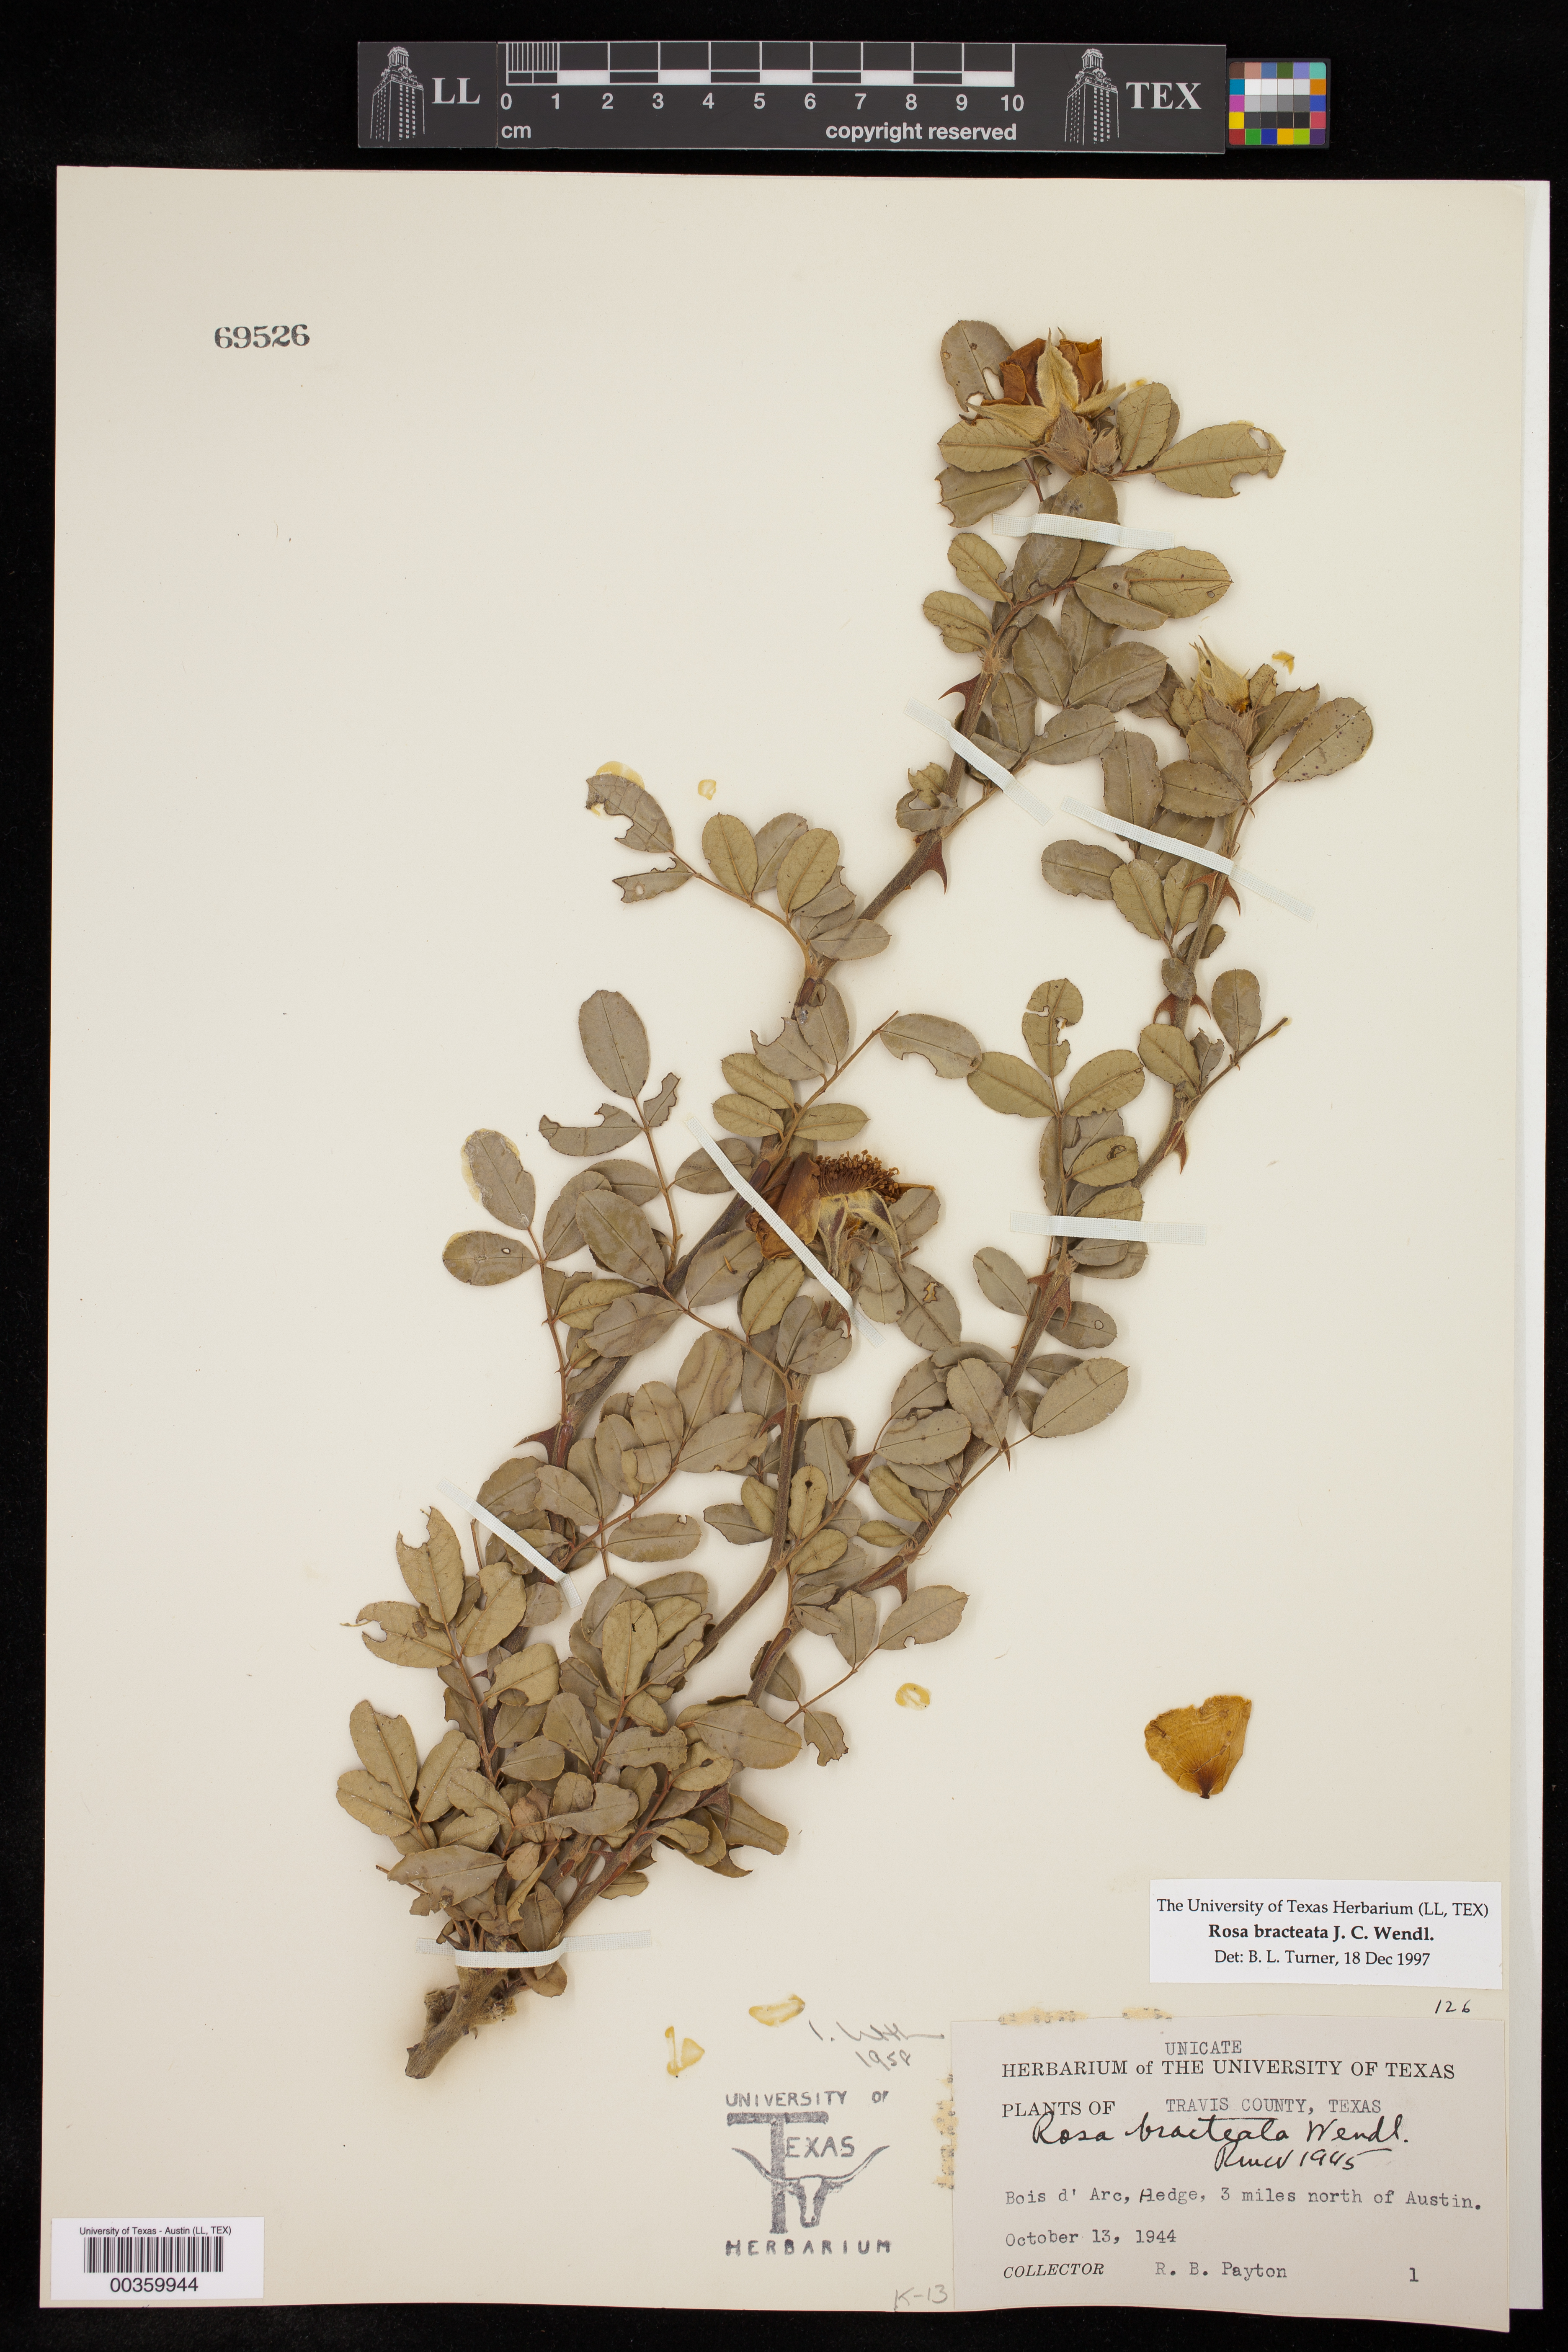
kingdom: Plantae
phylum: Tracheophyta
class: Magnoliopsida
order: Rosales
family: Rosaceae
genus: Rosa
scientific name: Rosa bracteata
